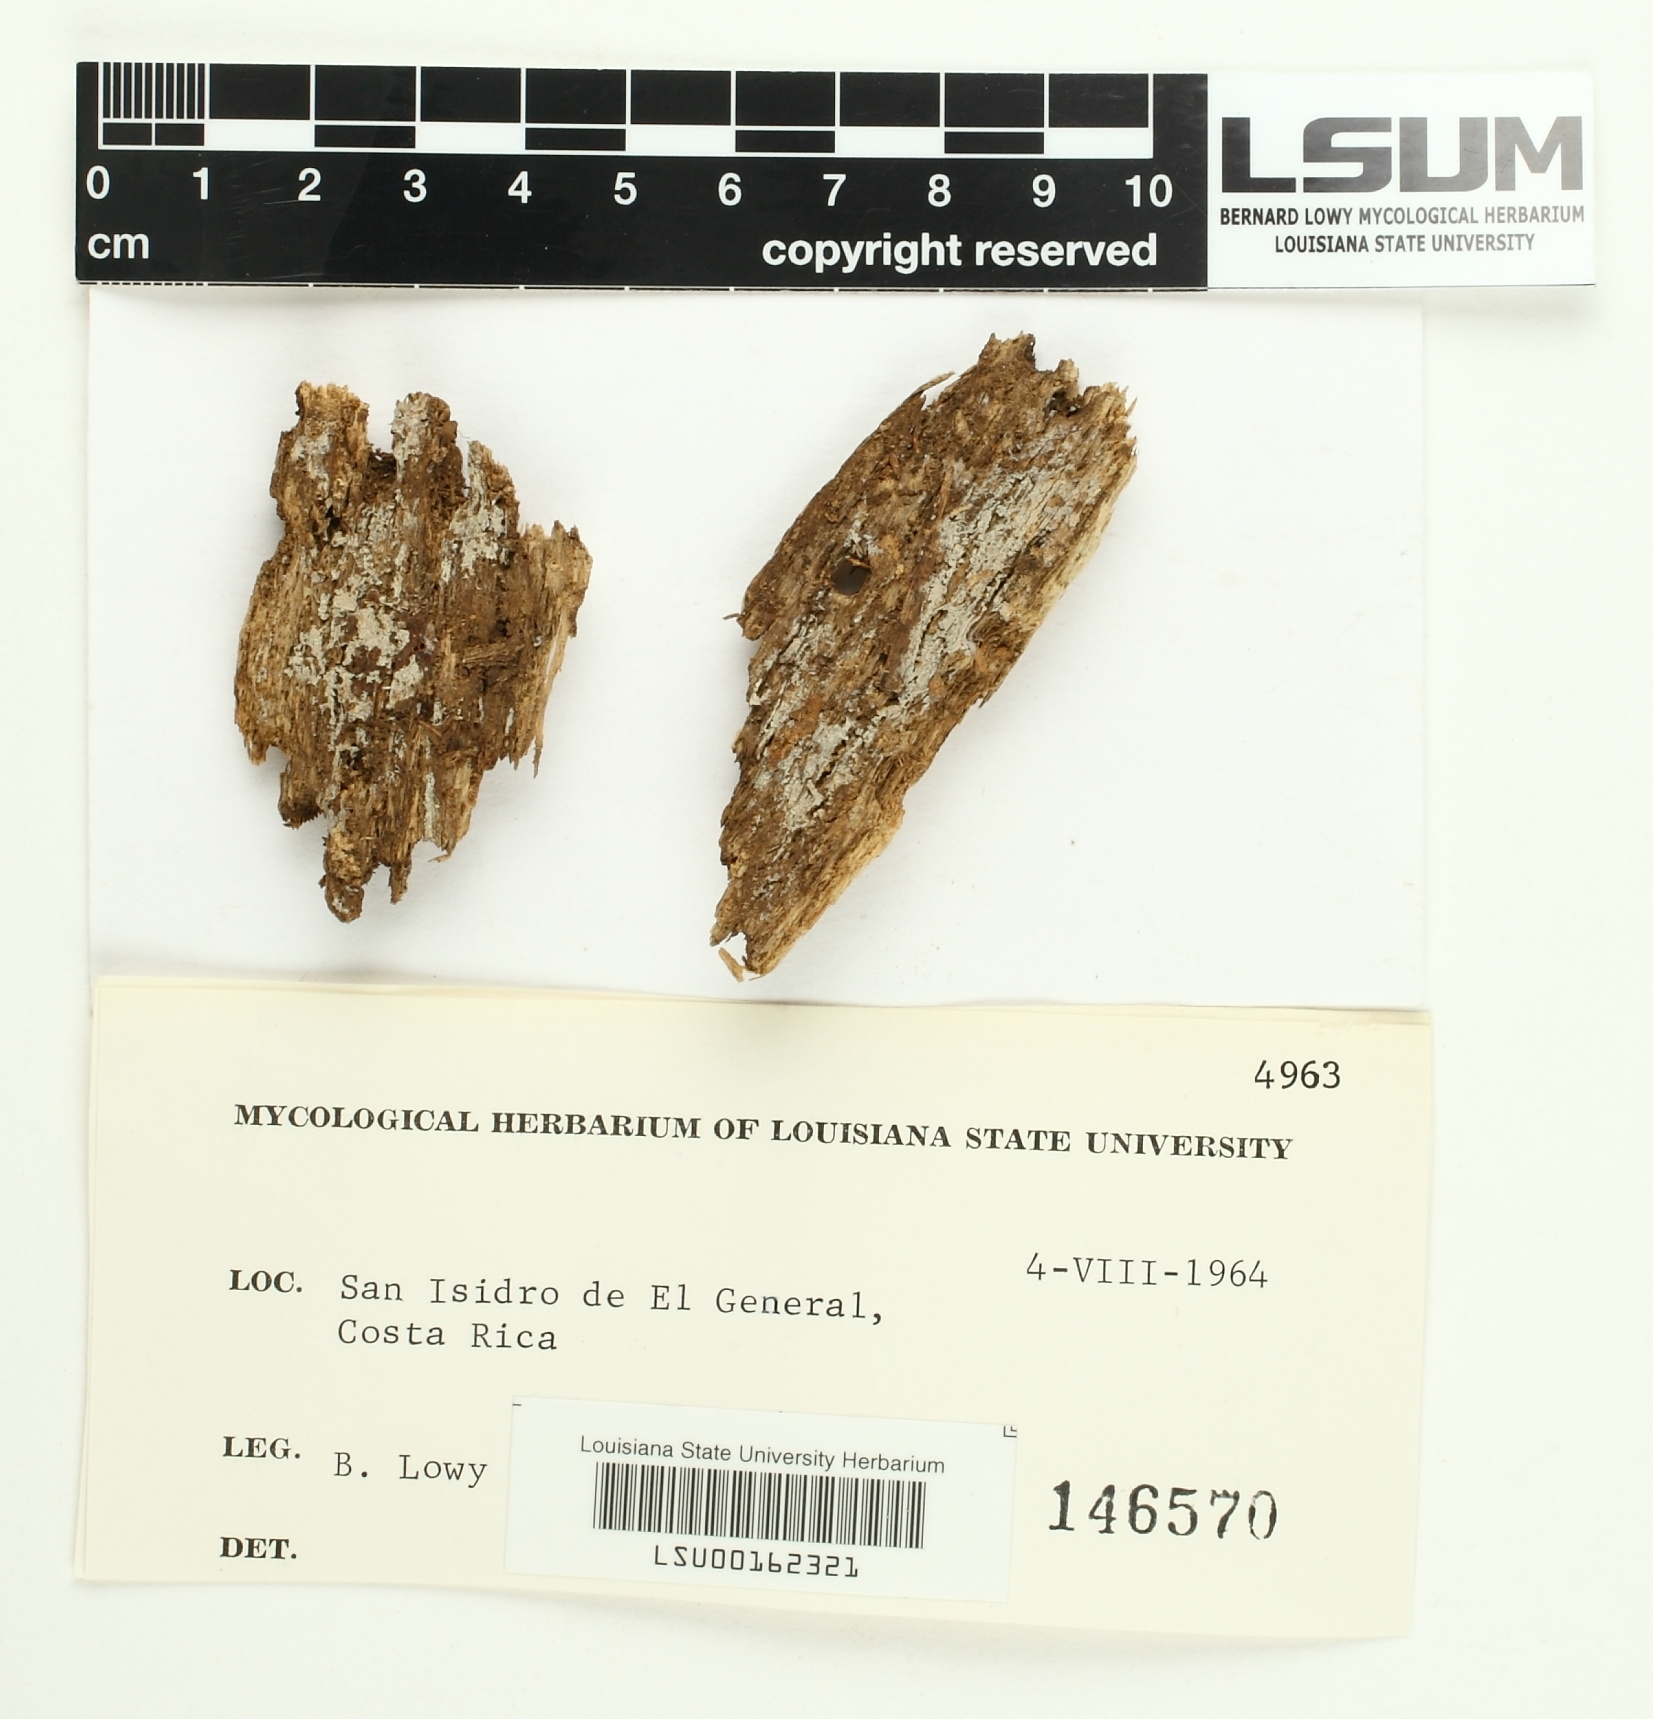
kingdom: Fungi
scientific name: Fungi
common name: Fungi
